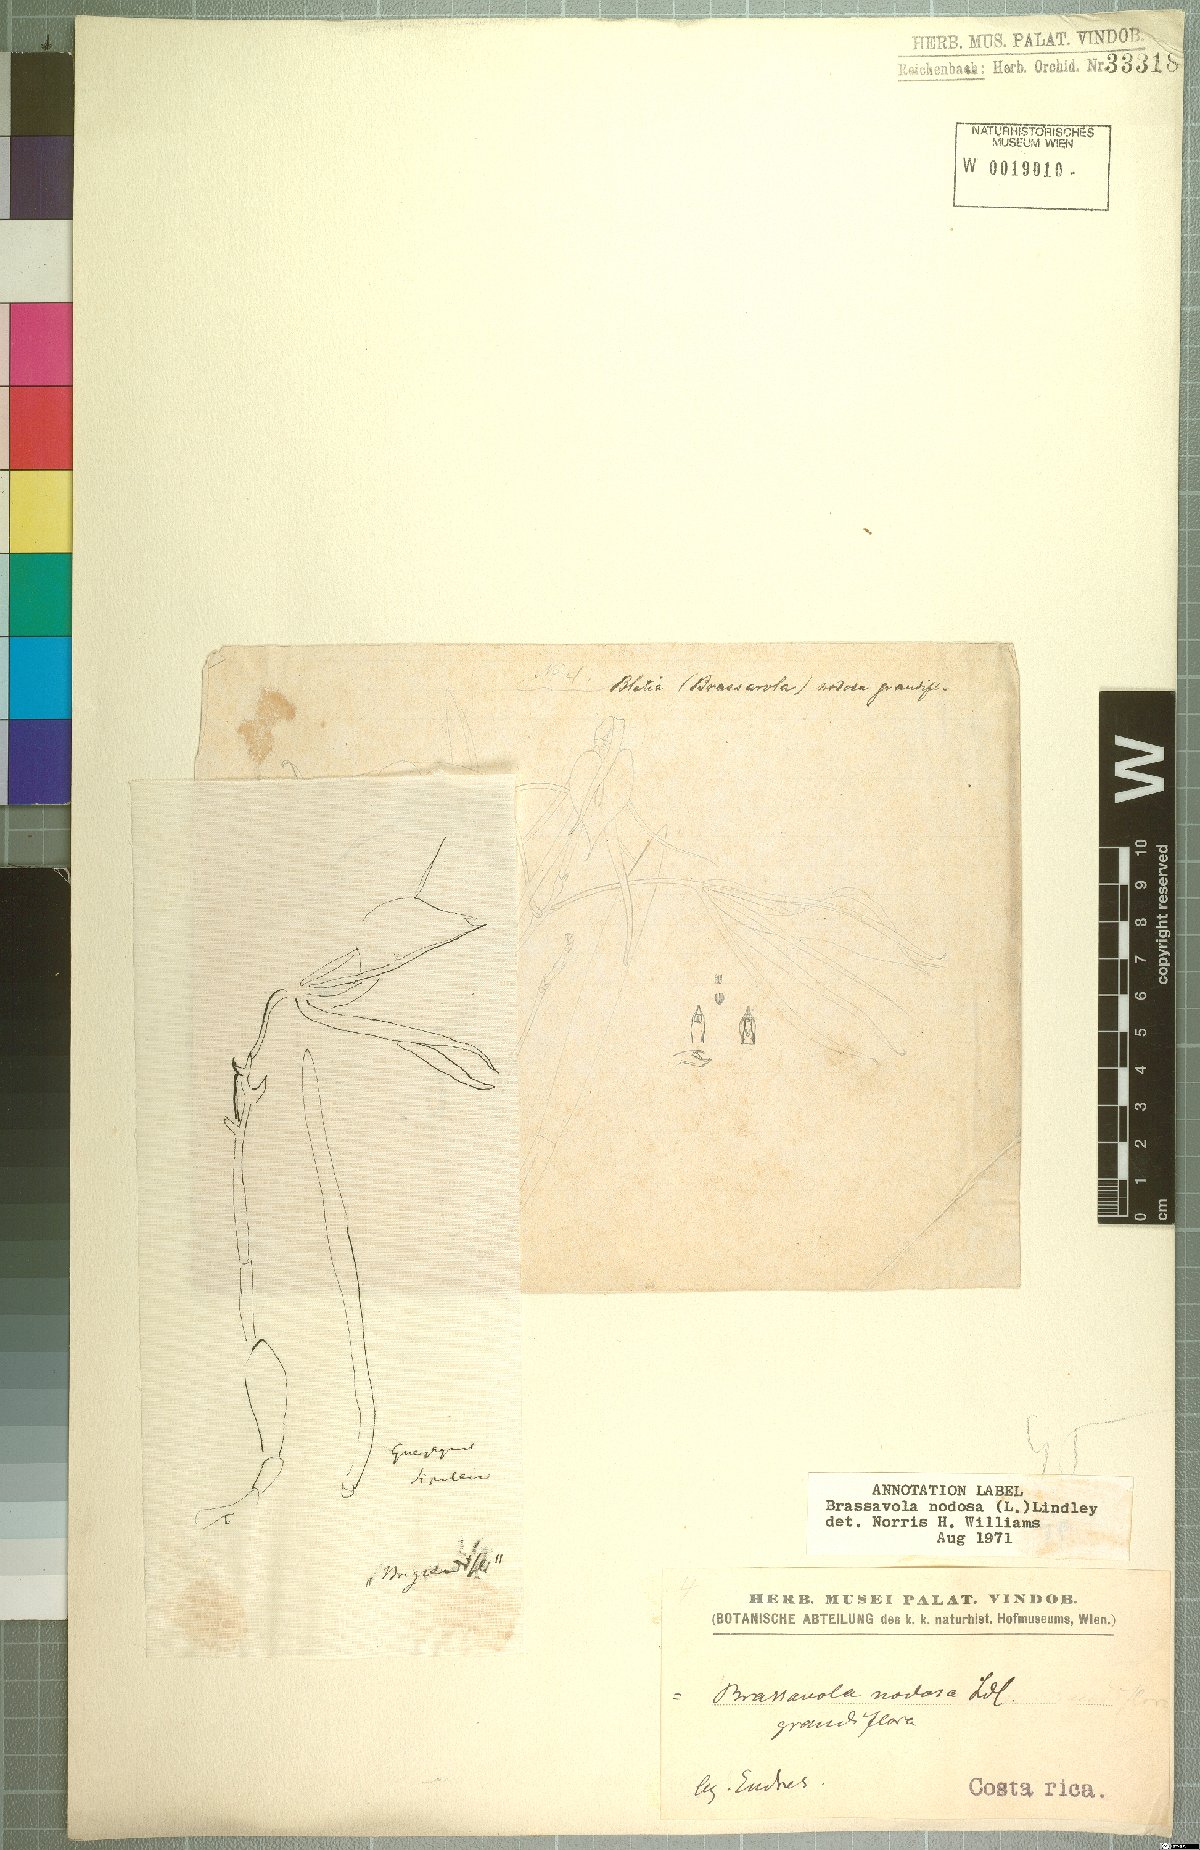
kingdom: Plantae
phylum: Tracheophyta
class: Liliopsida
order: Asparagales
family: Orchidaceae
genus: Brassavola
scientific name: Brassavola nodosa
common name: Lady of the night
